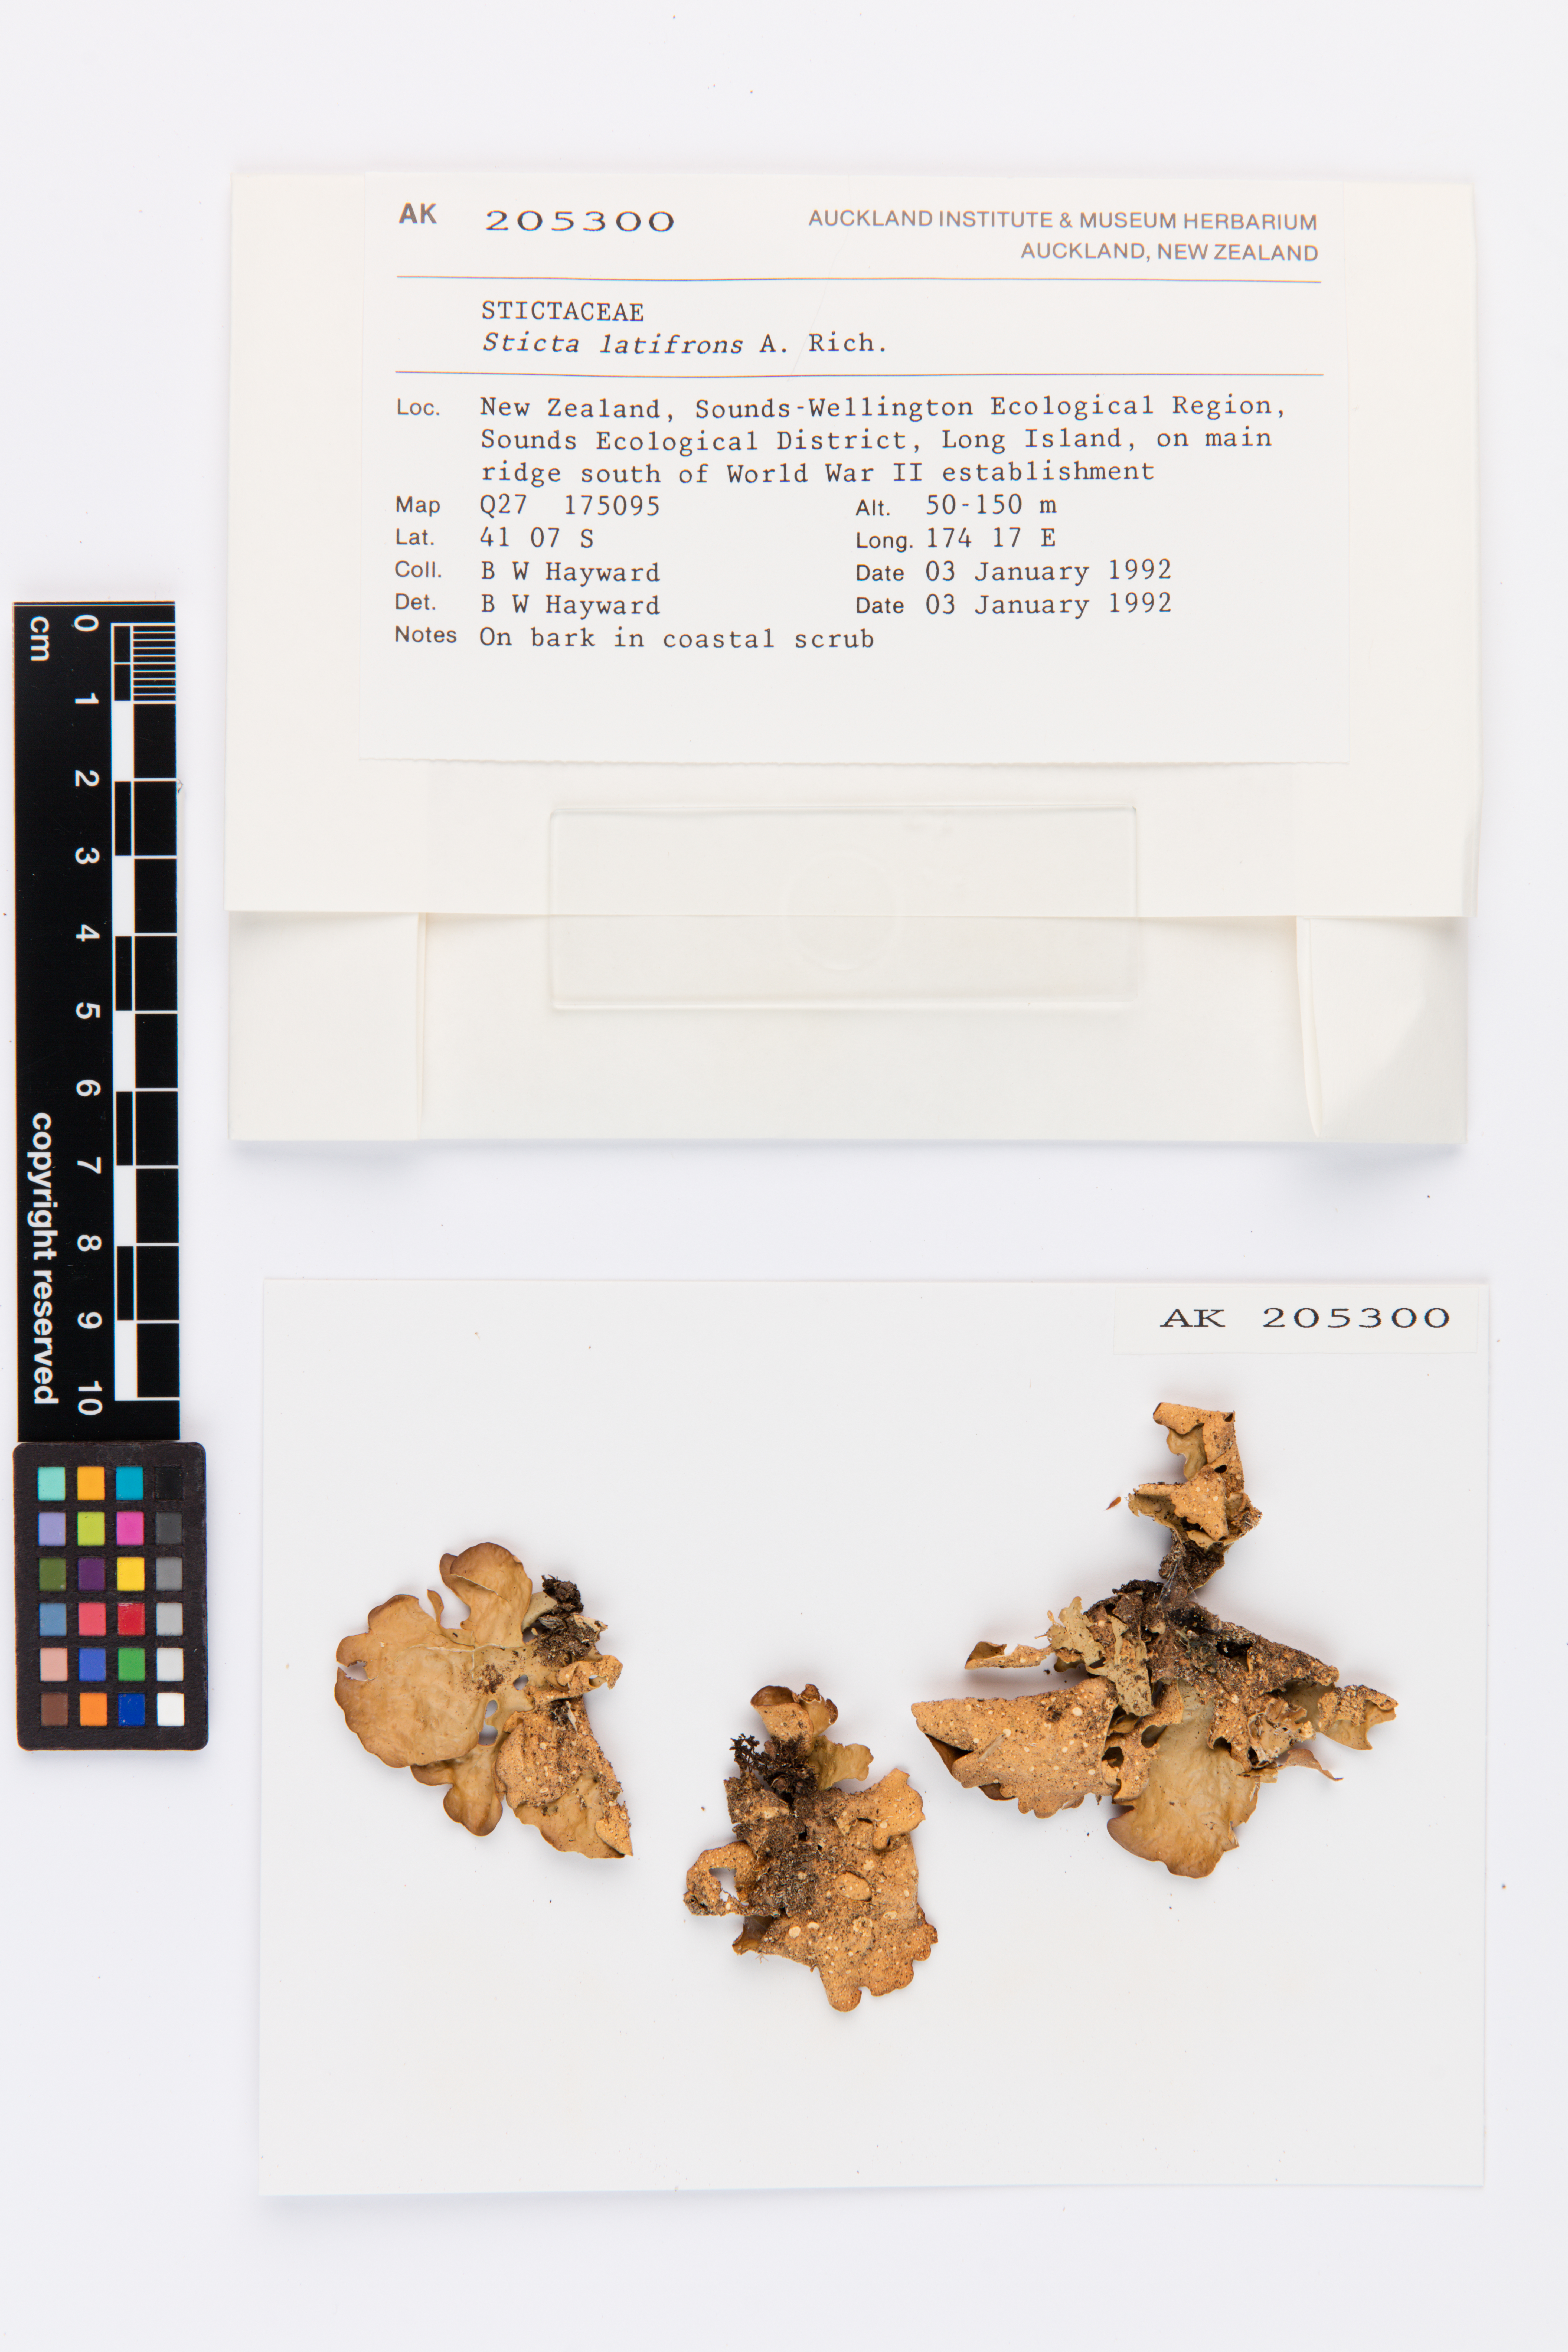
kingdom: Fungi
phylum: Ascomycota
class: Lecanoromycetes
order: Peltigerales
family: Lobariaceae
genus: Sticta
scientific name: Sticta latifrons
